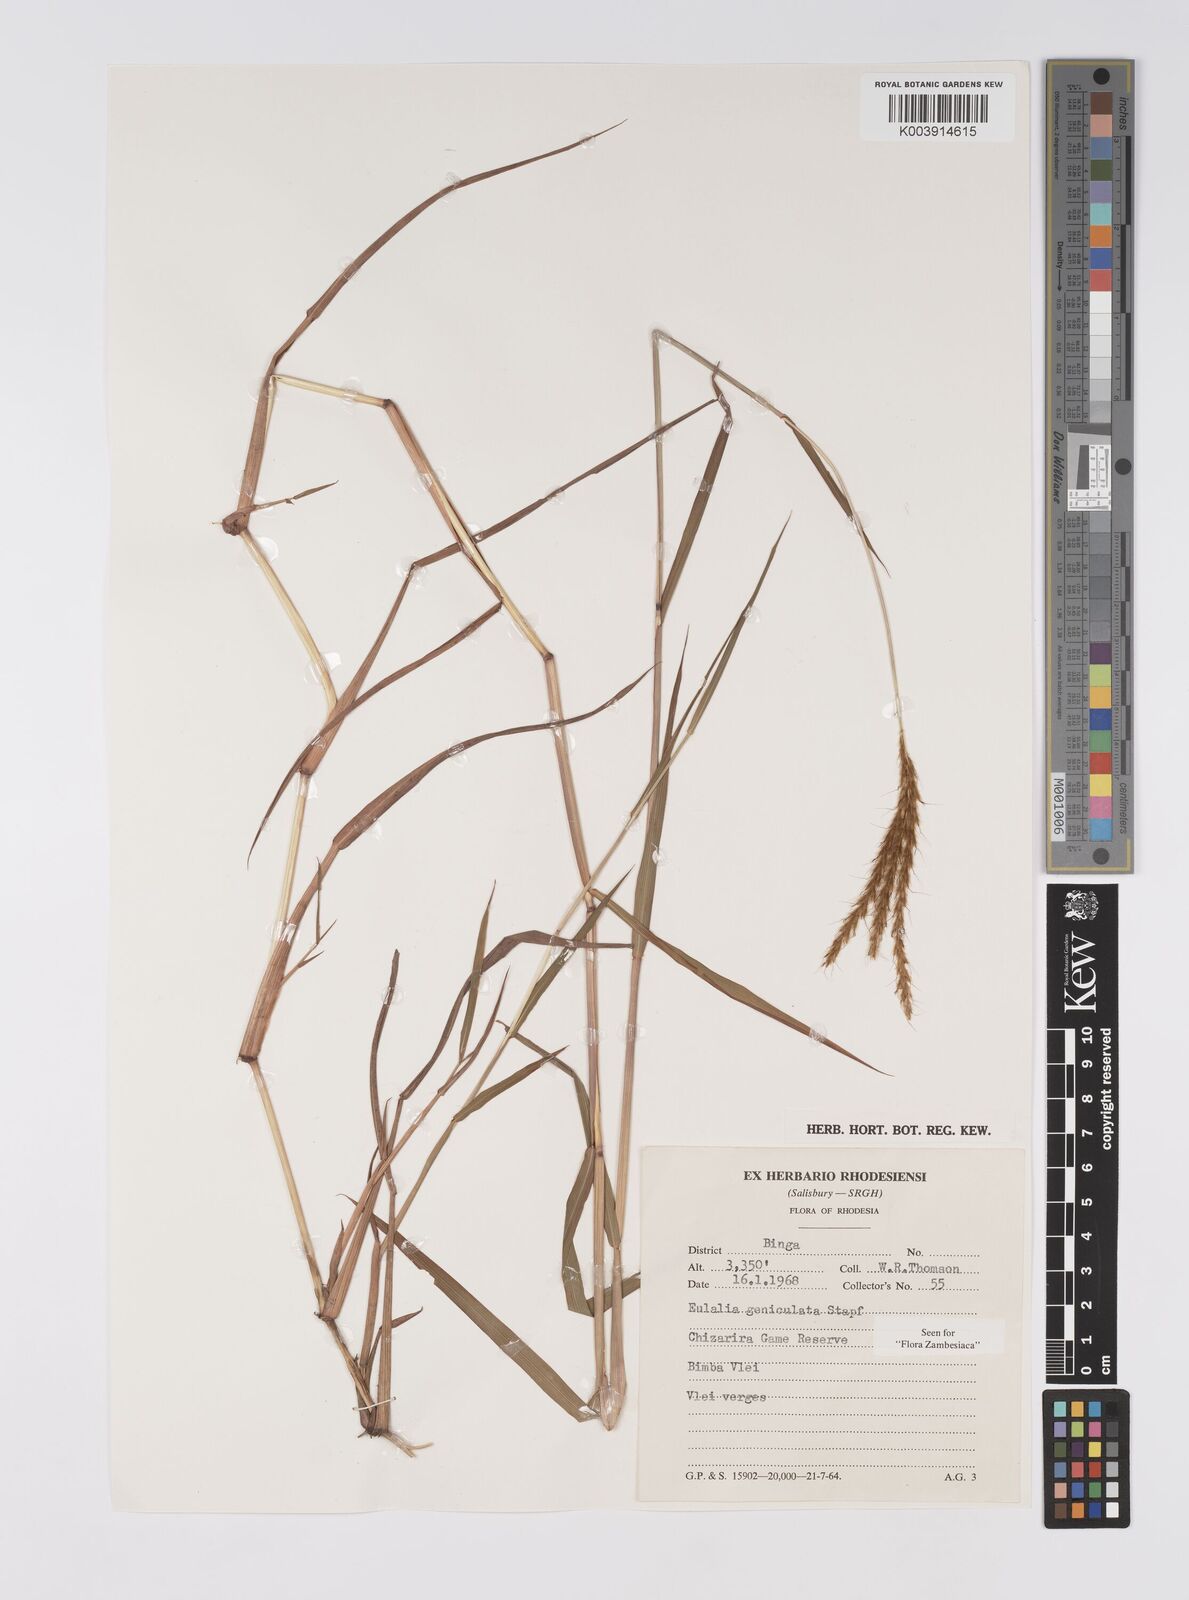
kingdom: Plantae
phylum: Tracheophyta
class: Liliopsida
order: Poales
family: Poaceae
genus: Eulalia
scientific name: Eulalia aurea
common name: Silky browntop
